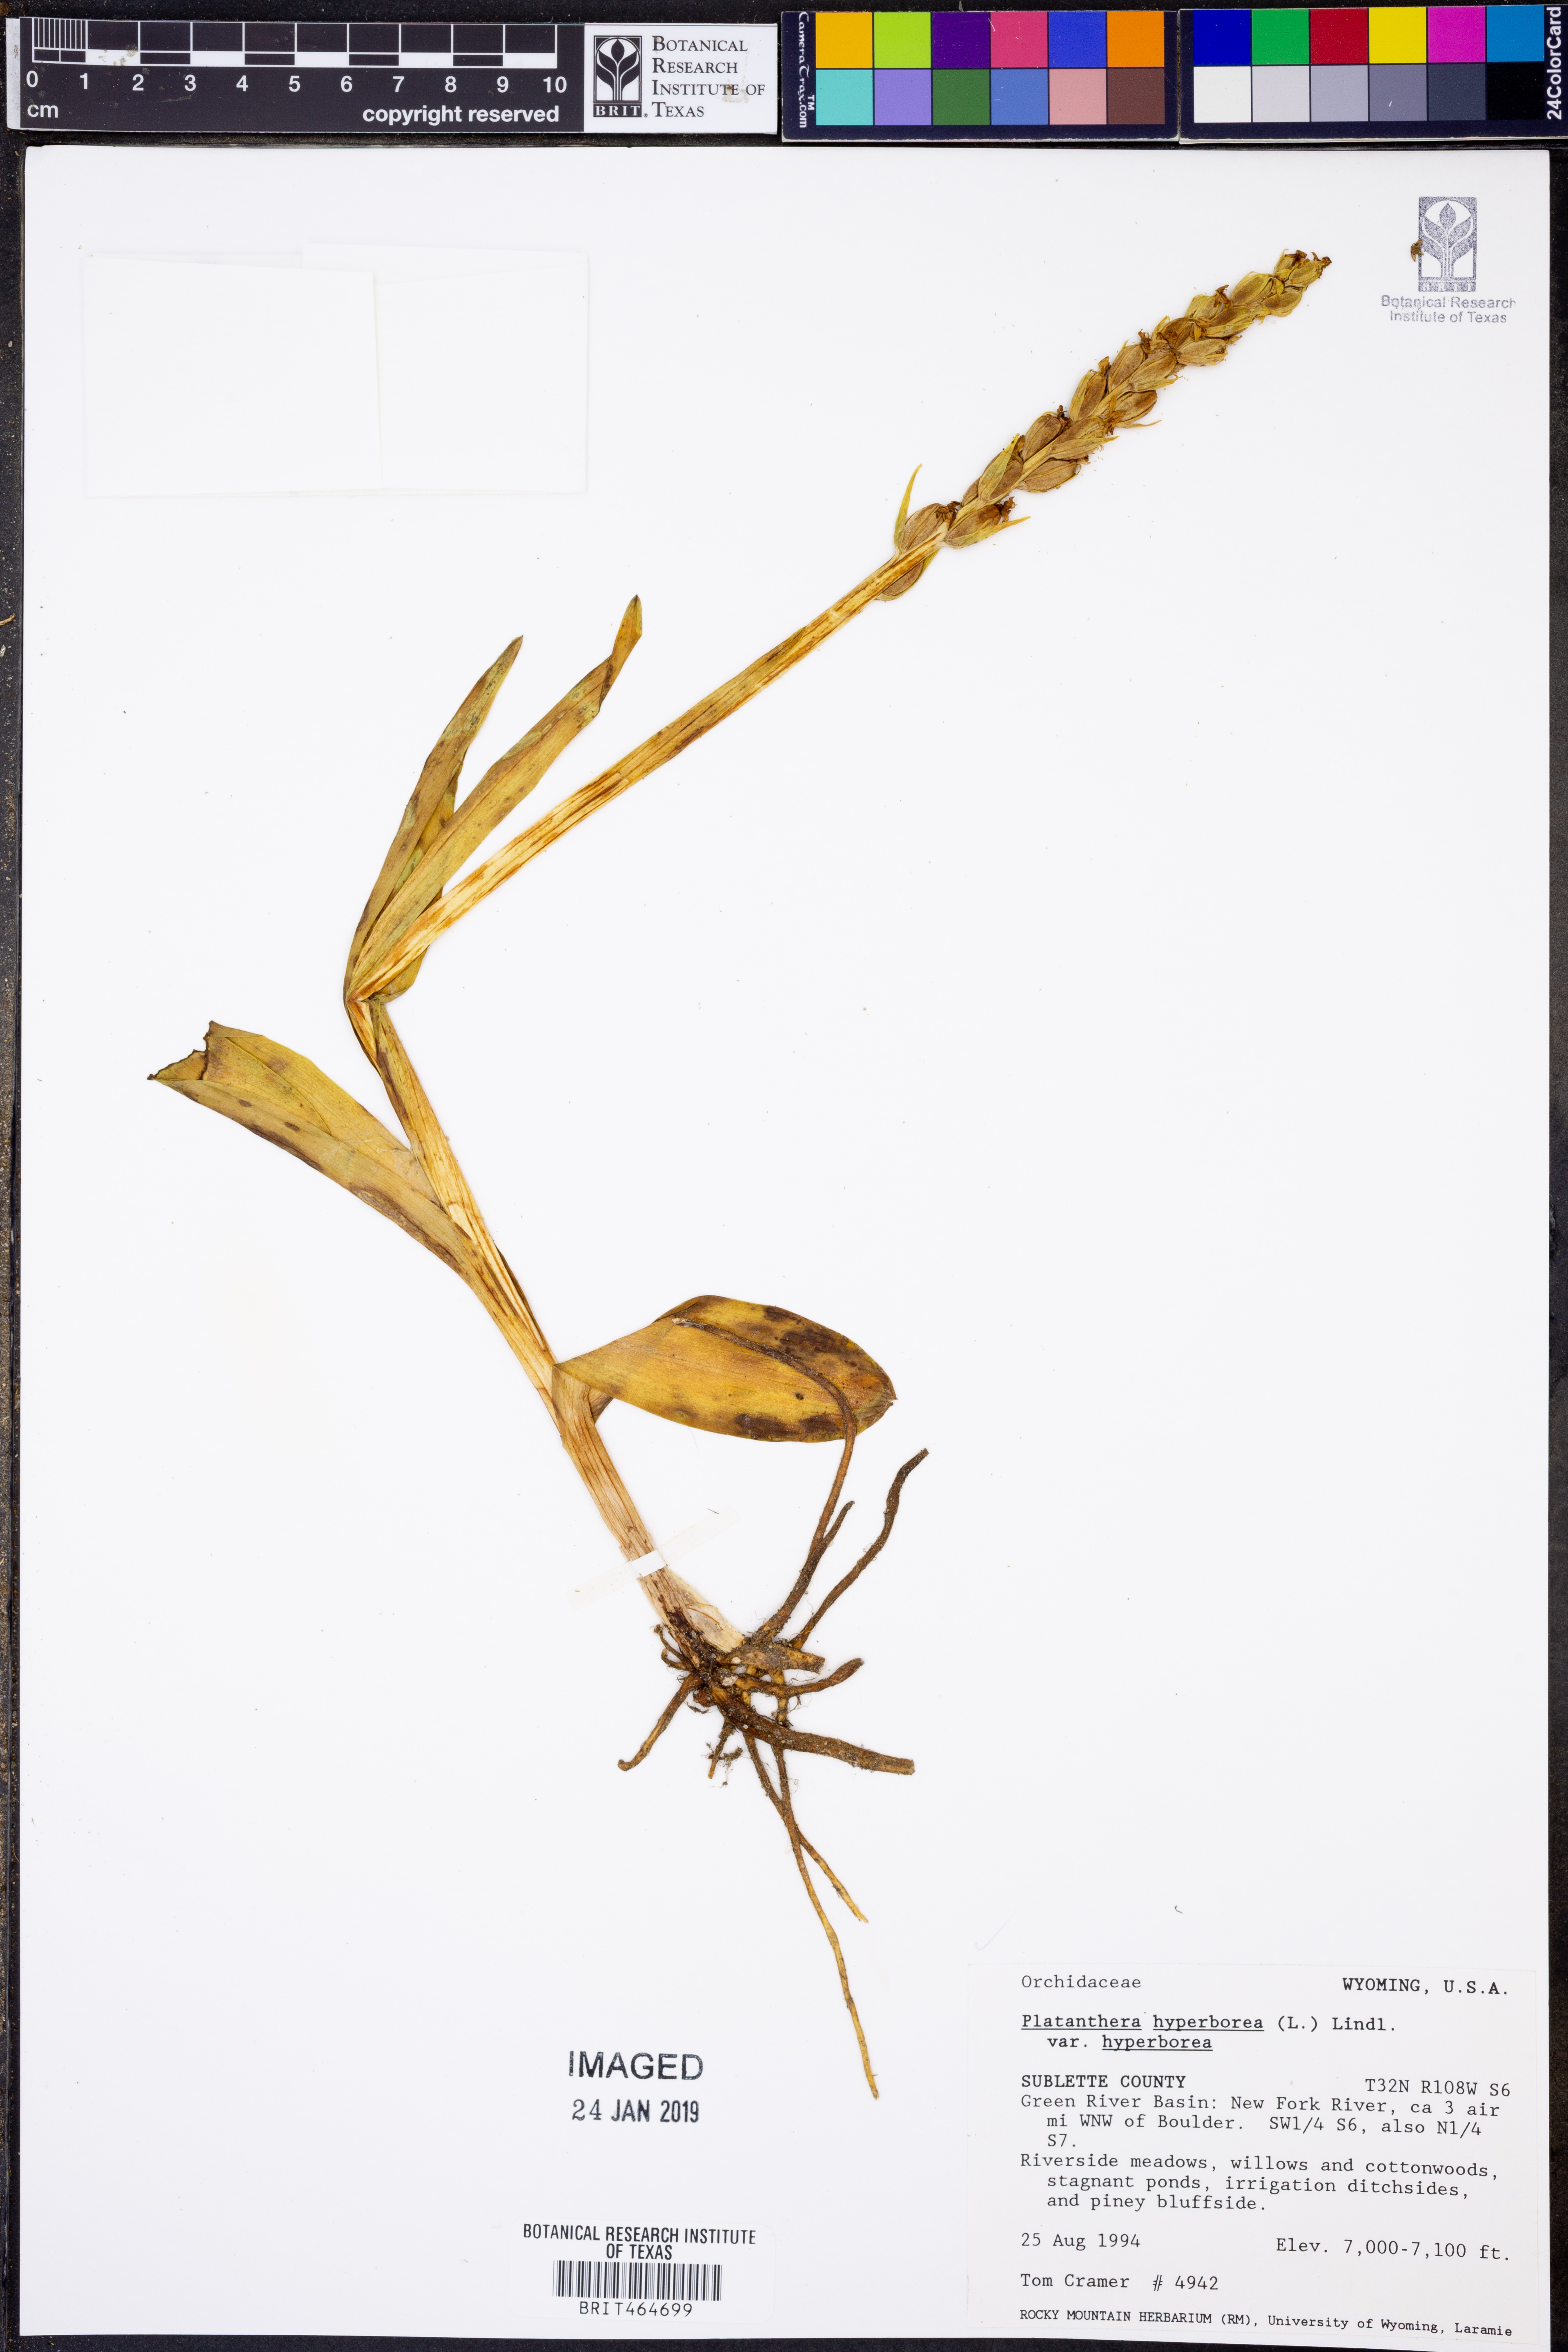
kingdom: Plantae
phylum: Tracheophyta
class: Liliopsida
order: Asparagales
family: Orchidaceae
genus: Platanthera
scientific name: Platanthera hyperborea
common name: Northern green orchid
